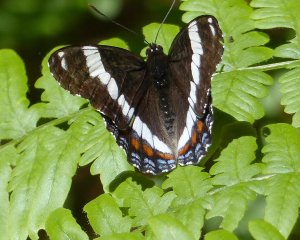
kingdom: Animalia
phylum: Arthropoda
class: Insecta
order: Lepidoptera
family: Nymphalidae
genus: Limenitis
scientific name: Limenitis arthemis
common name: Red-spotted Admiral
